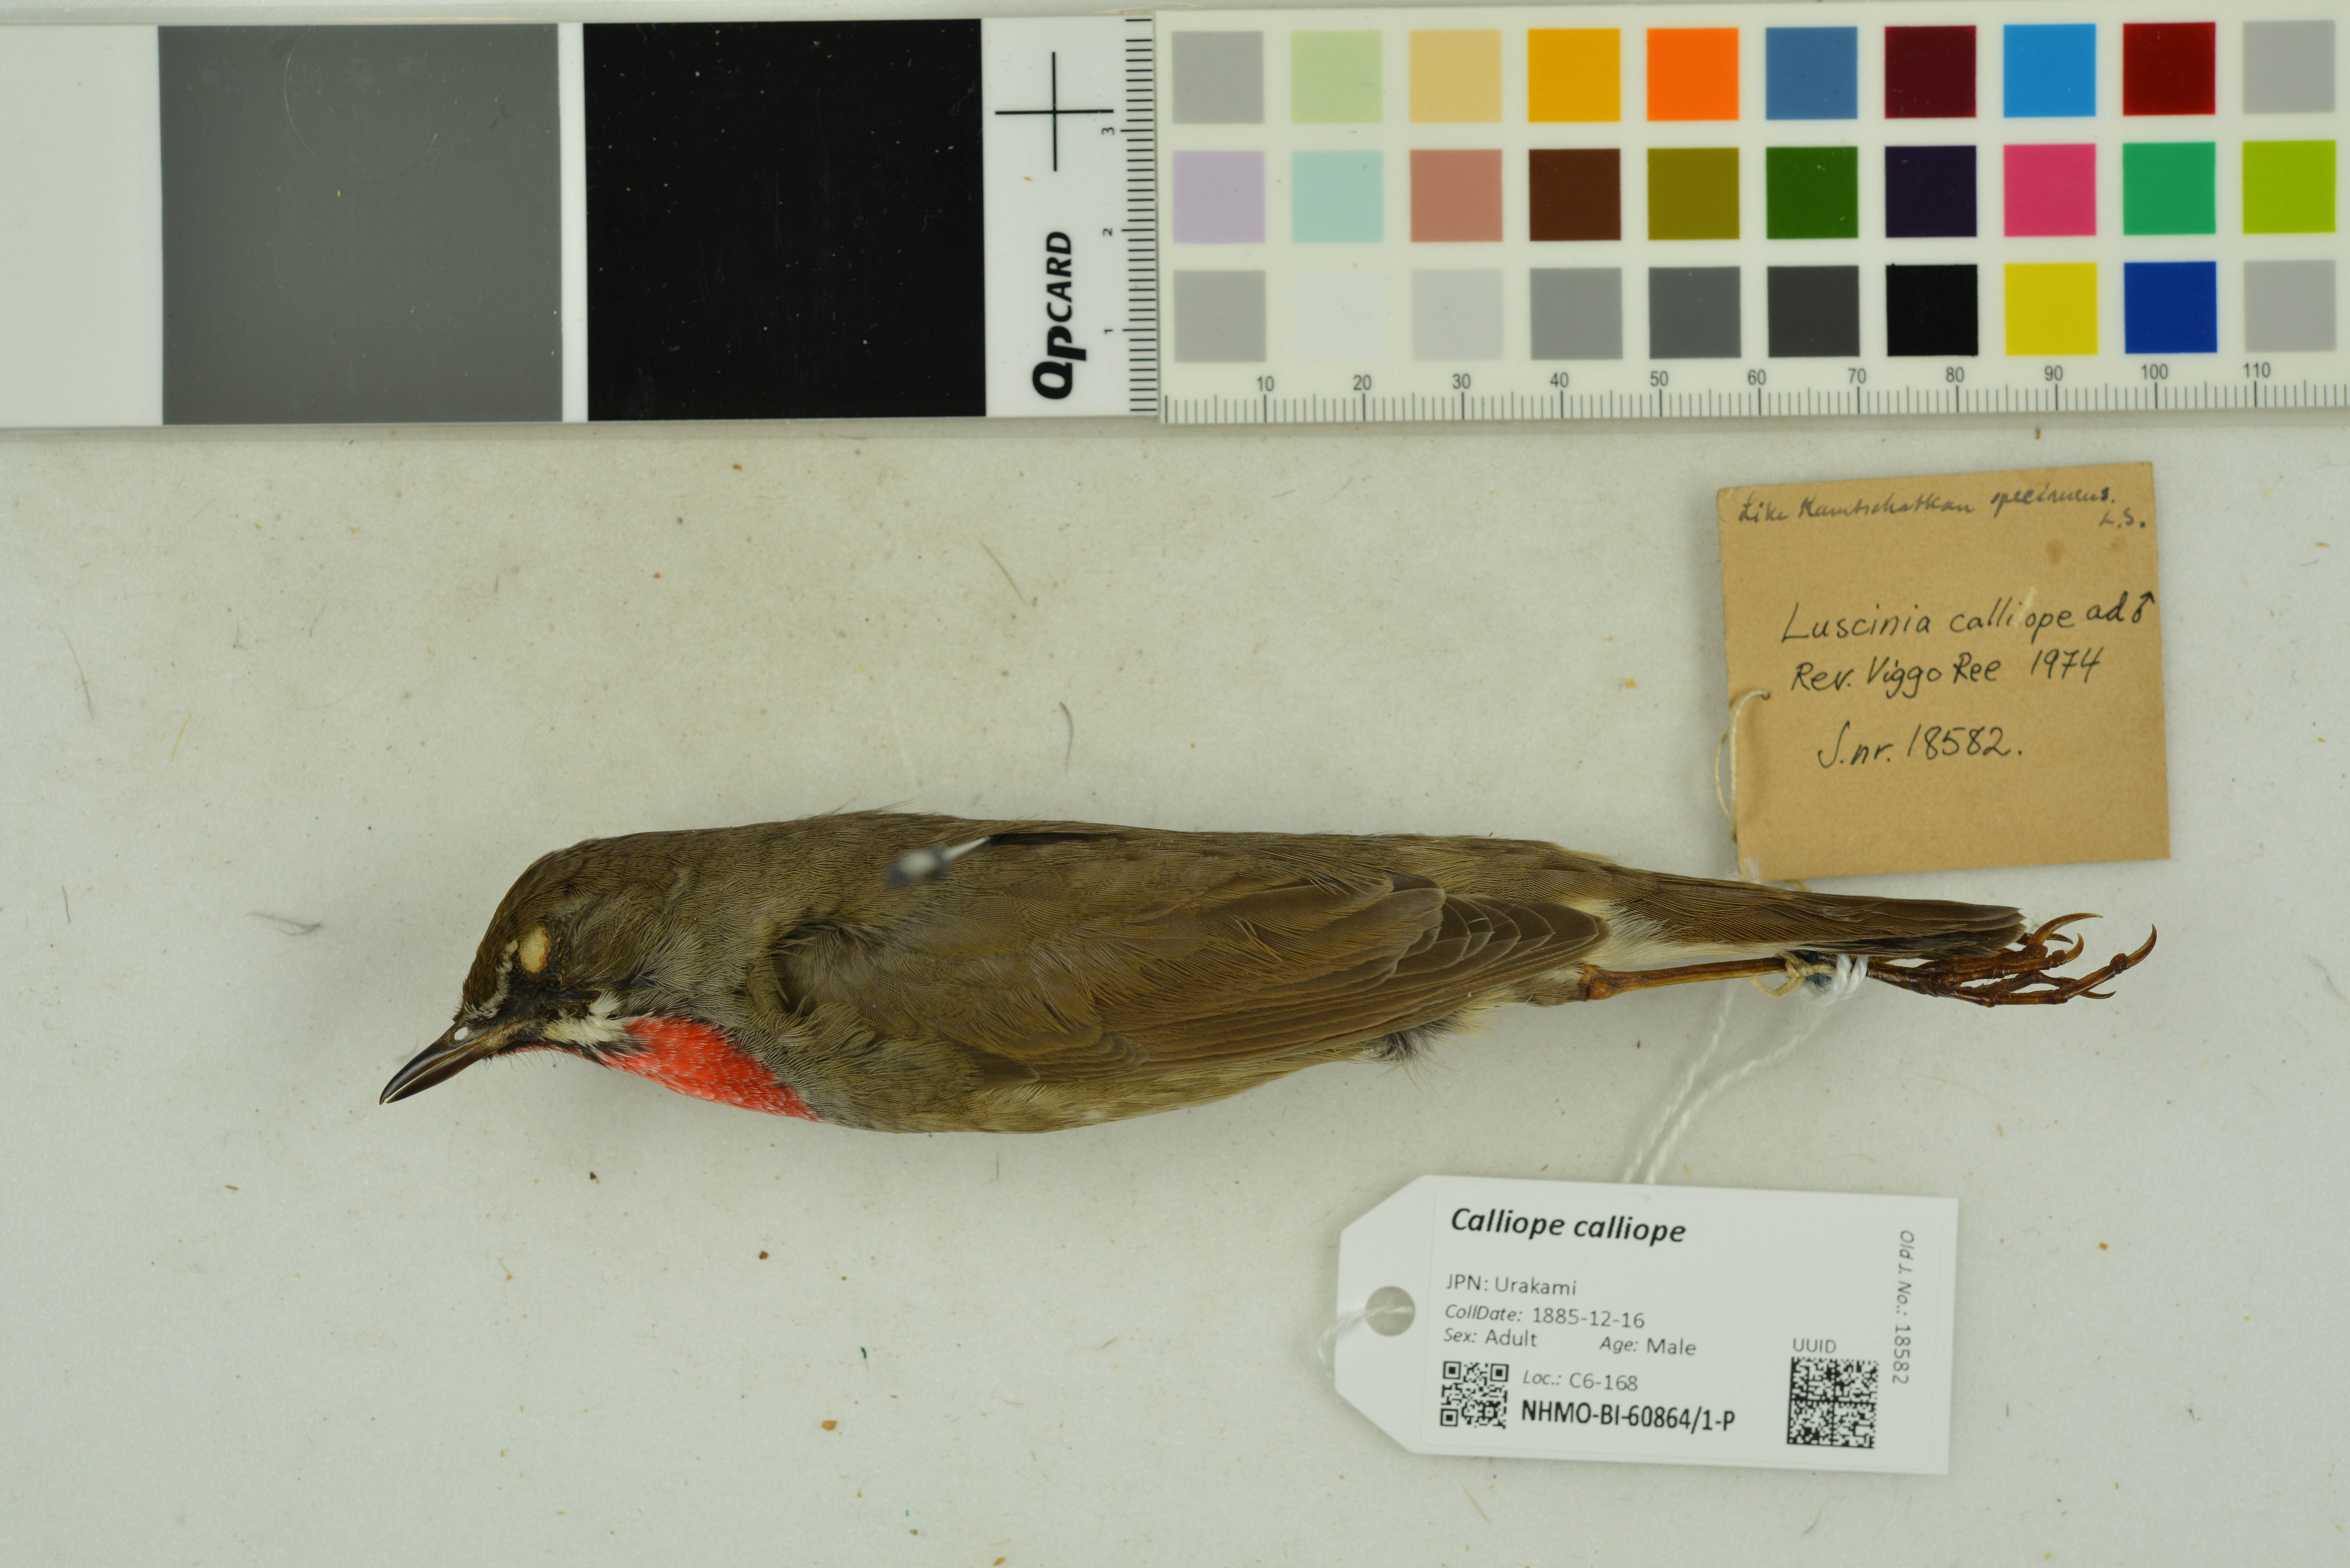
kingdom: Animalia
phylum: Chordata
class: Aves
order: Passeriformes
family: Muscicapidae
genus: Luscinia
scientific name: Luscinia calliope
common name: Siberian rubythroat
